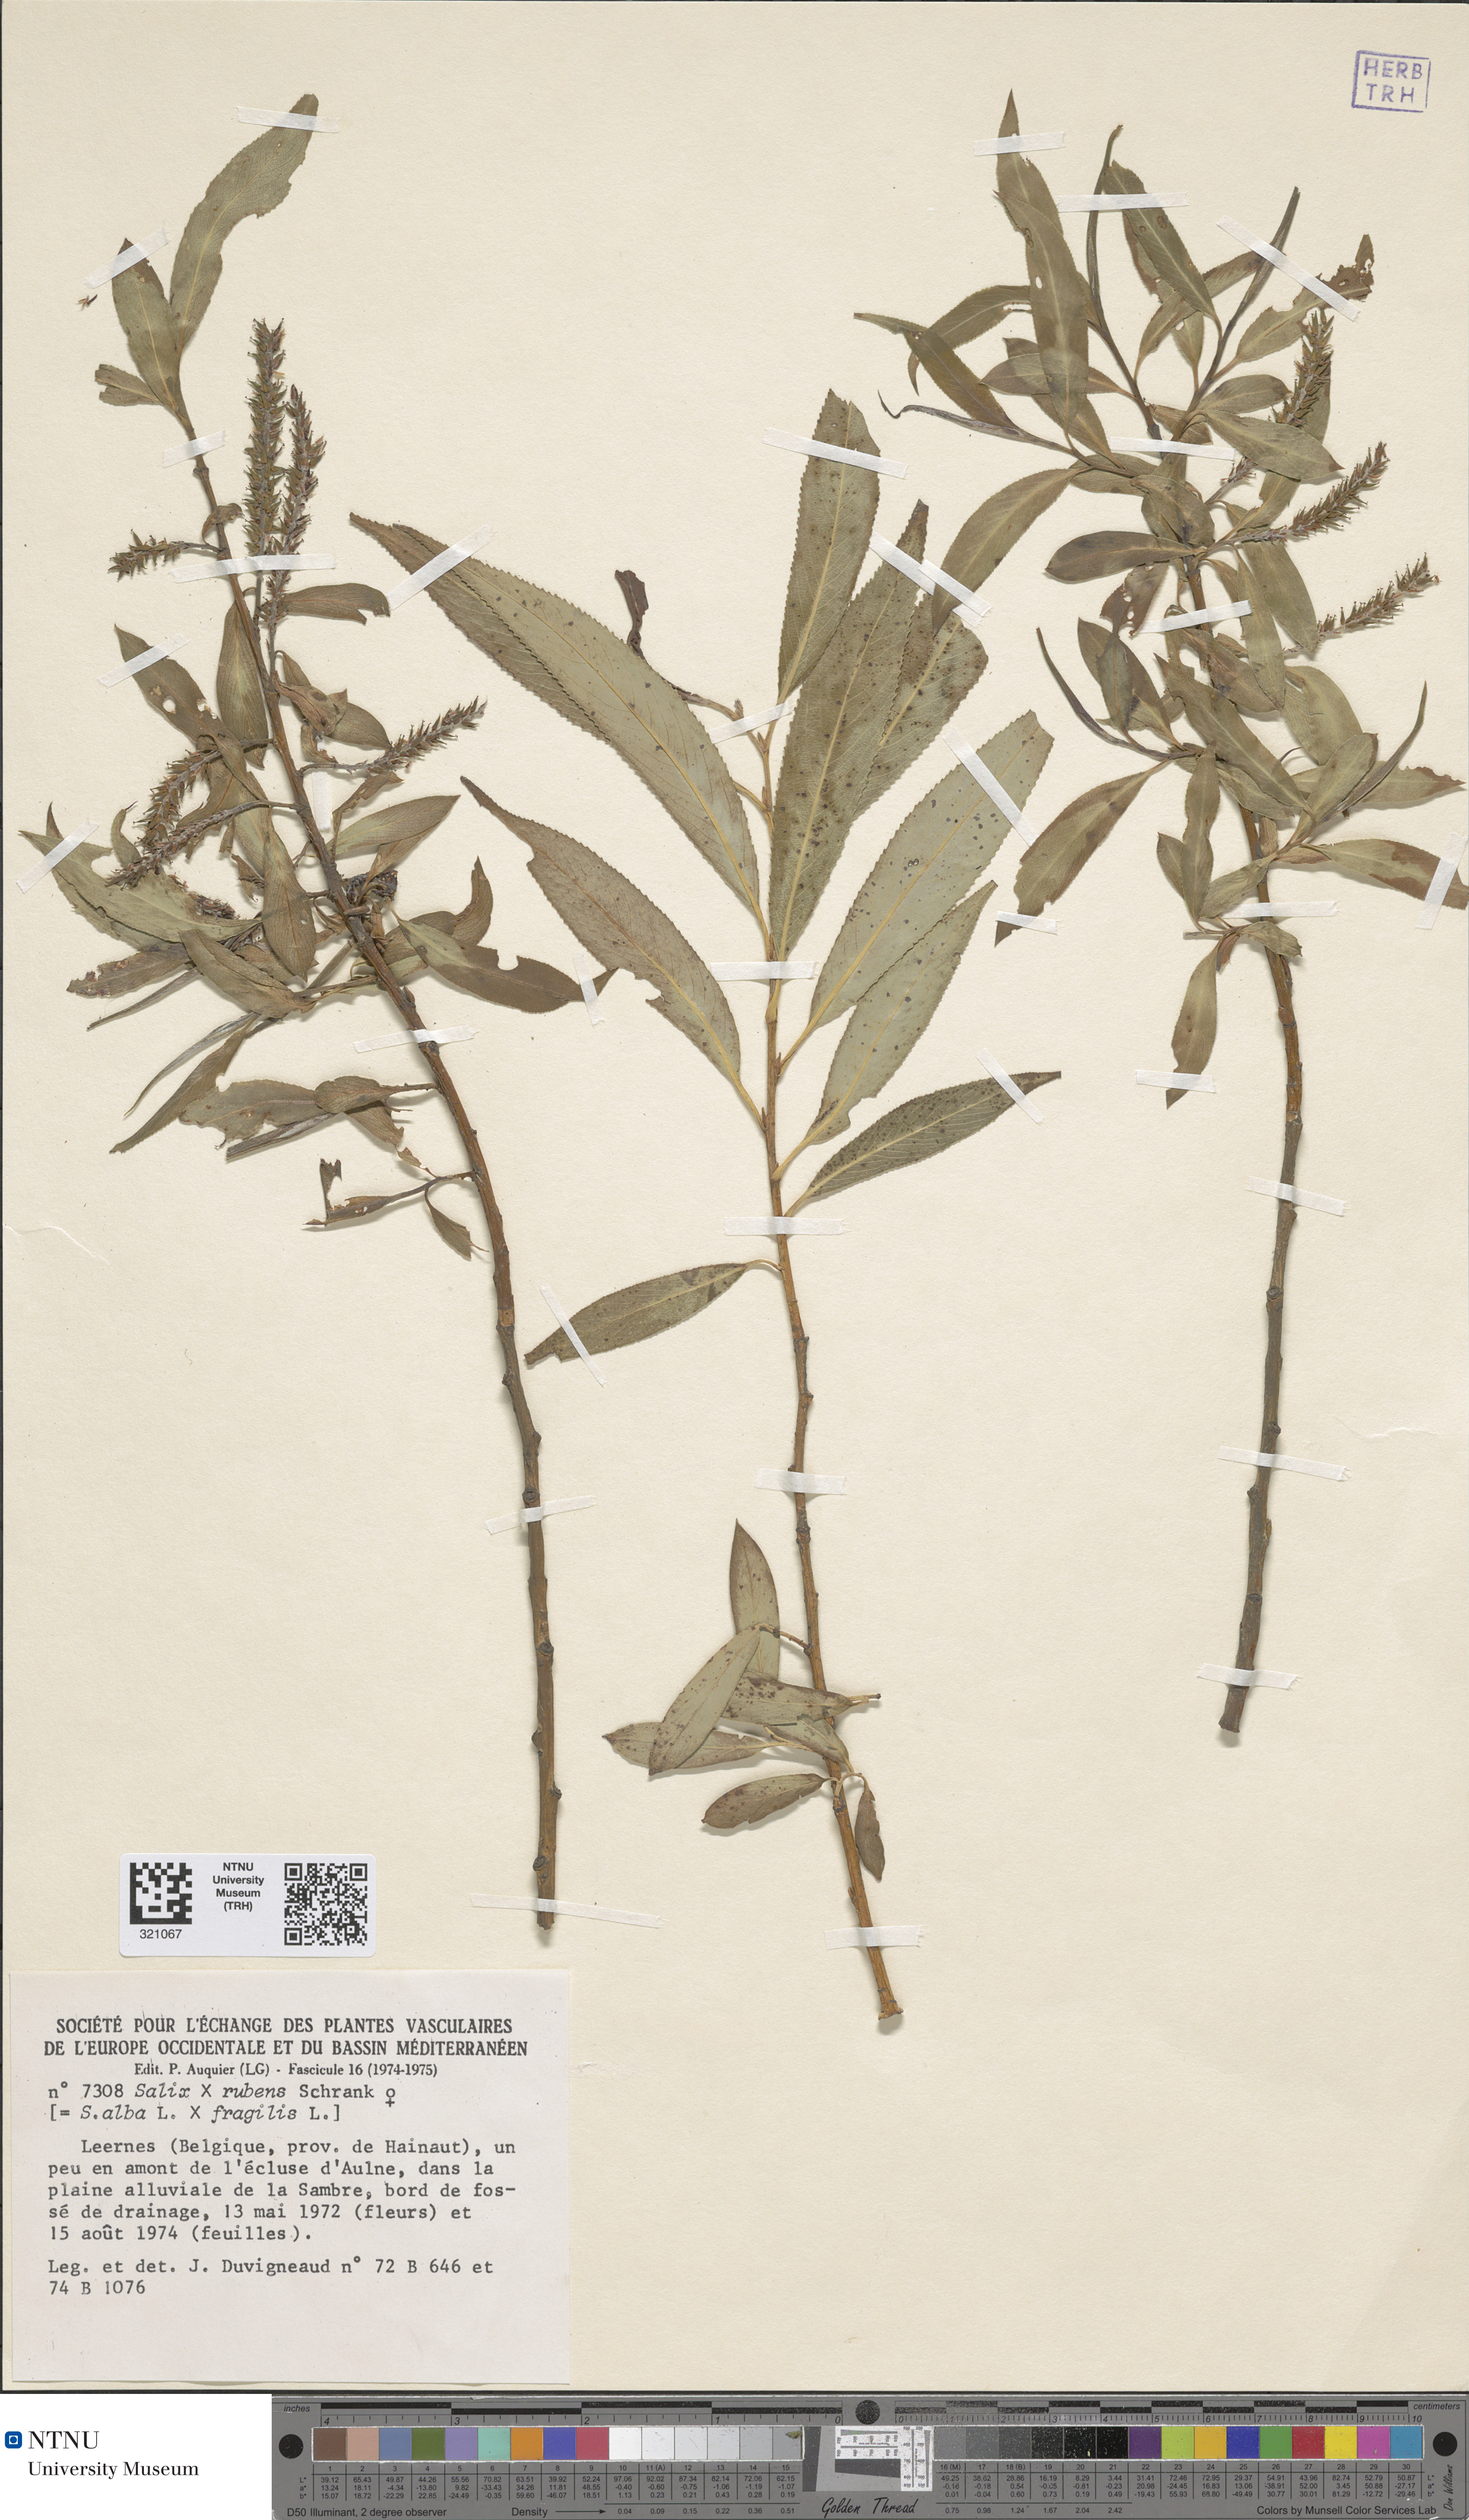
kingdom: Plantae
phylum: Tracheophyta
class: Magnoliopsida
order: Malpighiales
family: Salicaceae
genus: Salix
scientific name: Salix fragilis
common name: Crack willow
